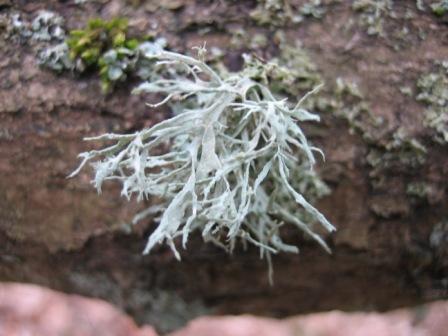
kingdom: Fungi
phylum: Ascomycota
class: Lecanoromycetes
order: Lecanorales
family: Ramalinaceae
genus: Ramalina
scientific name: Ramalina farinacea
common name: melet grenlav
